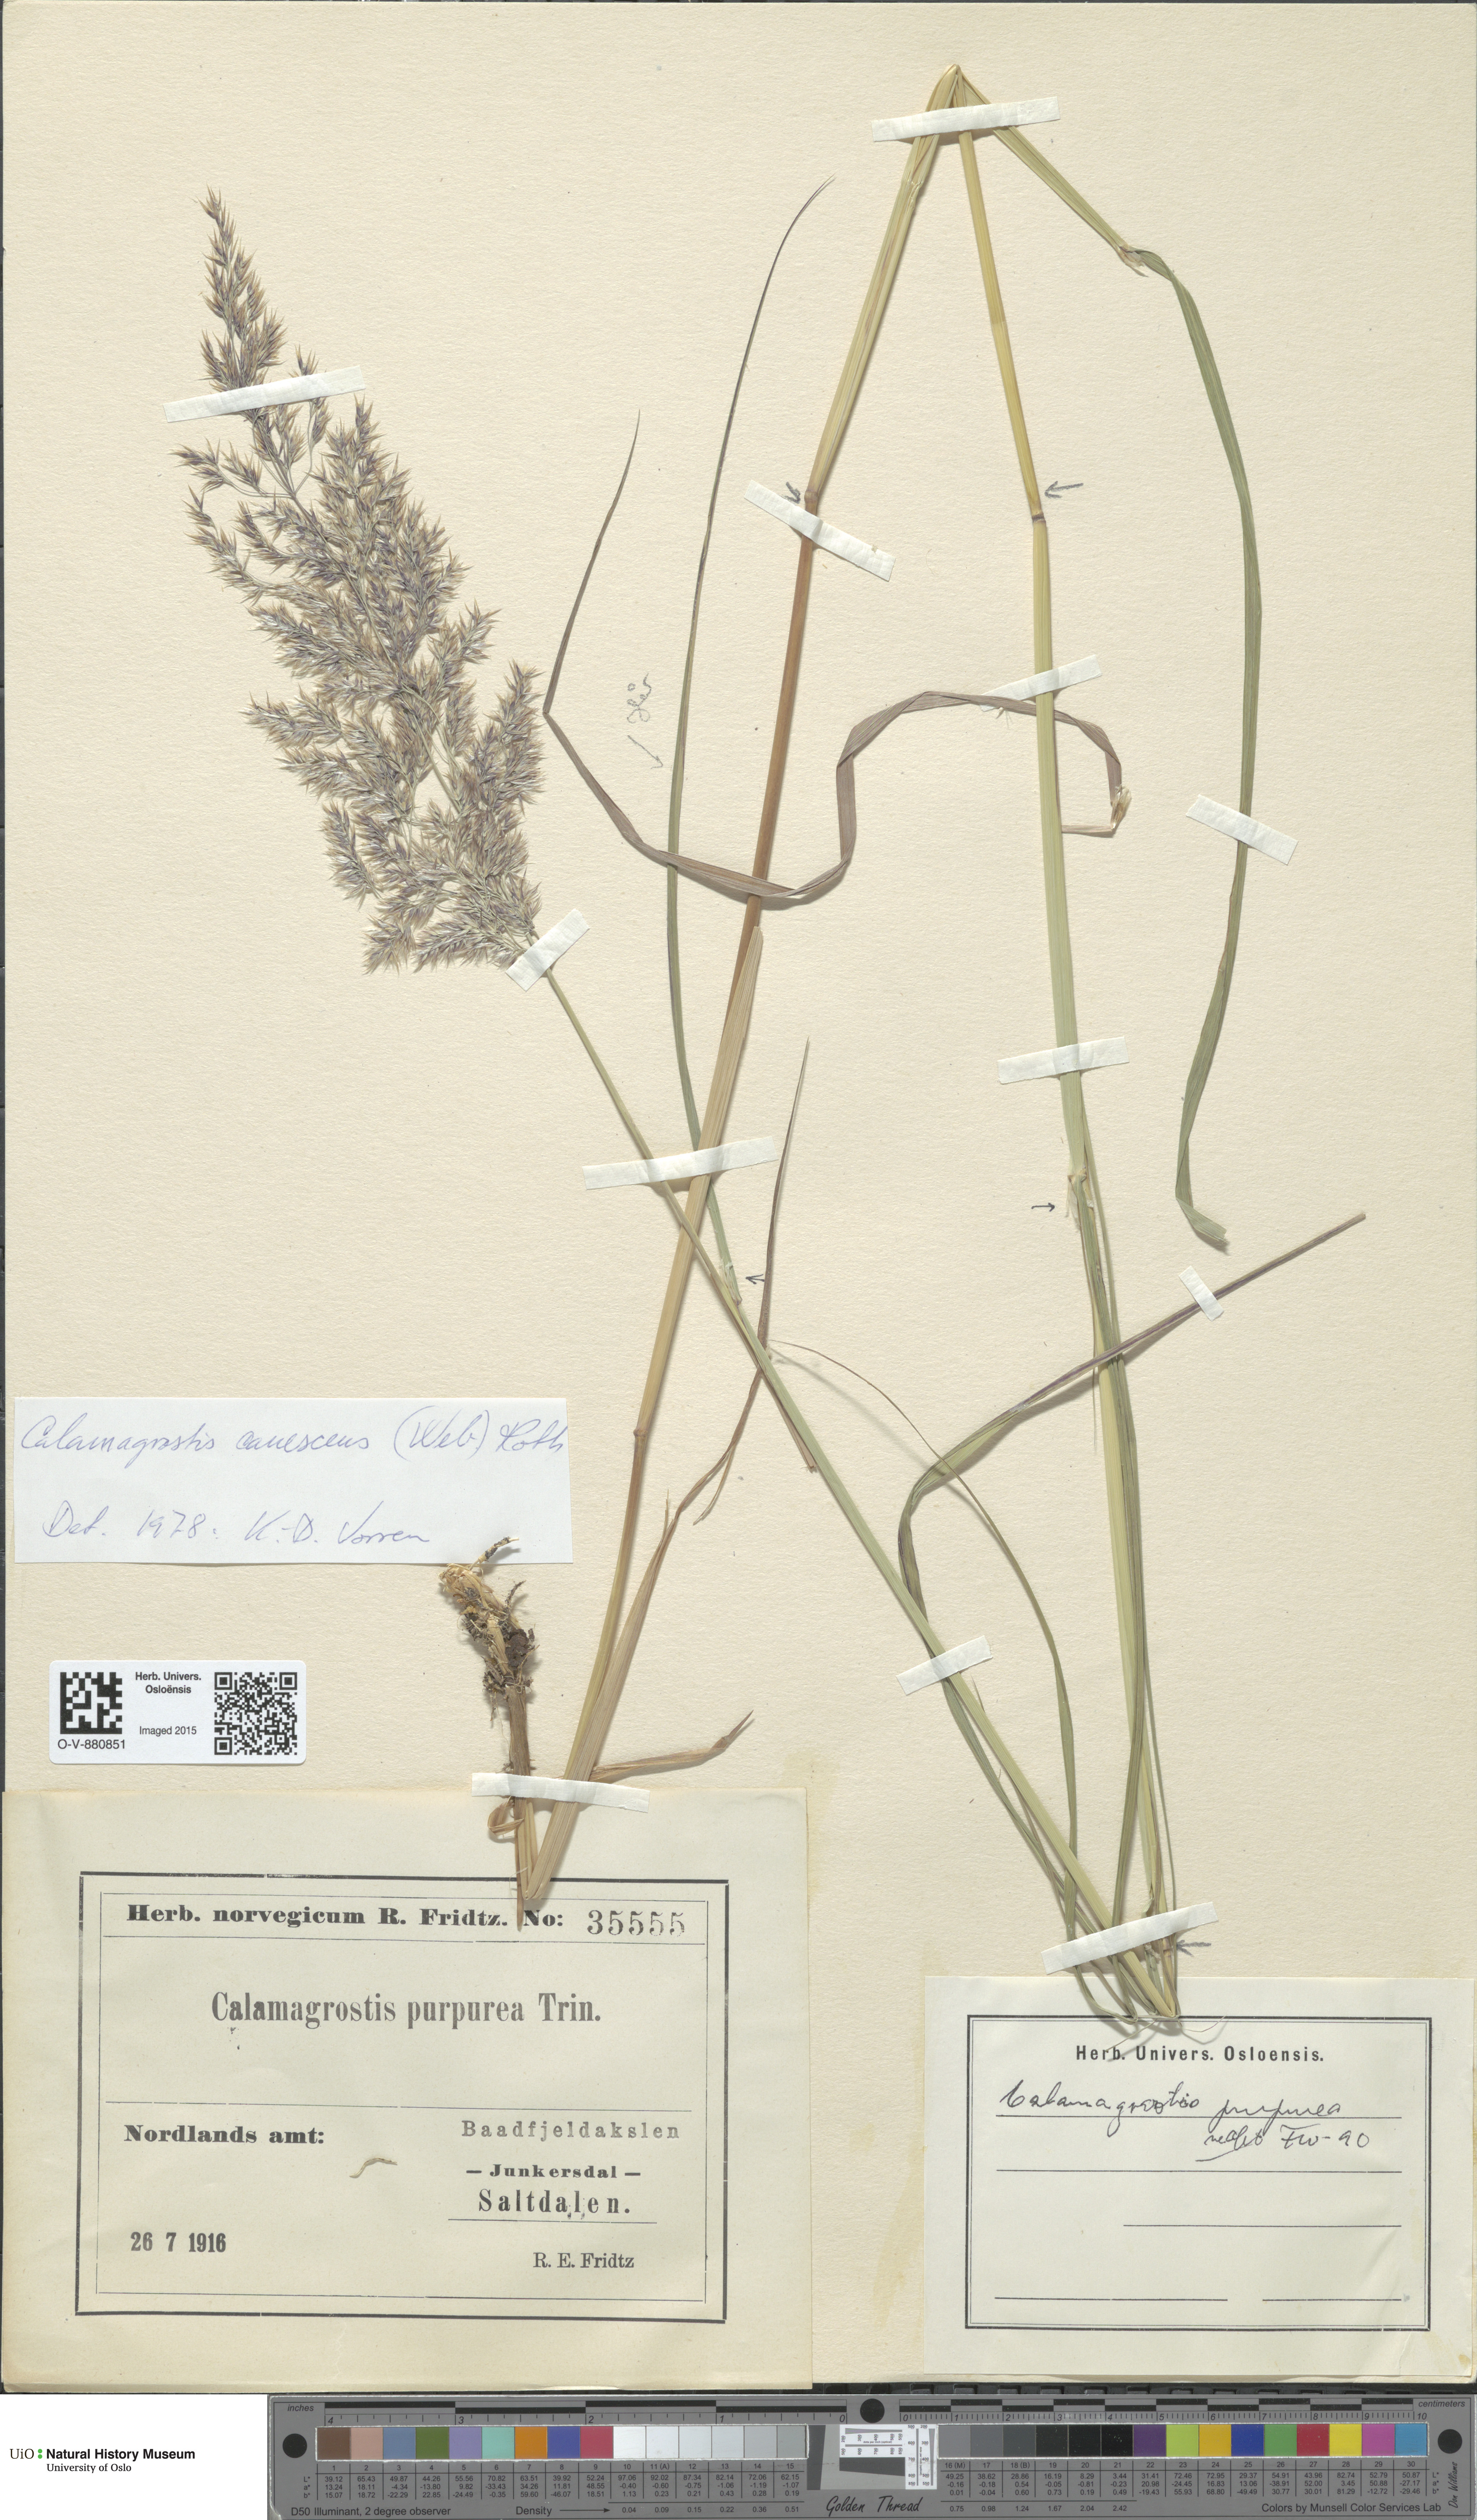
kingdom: Plantae
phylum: Tracheophyta
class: Liliopsida
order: Poales
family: Poaceae
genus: Calamagrostis
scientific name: Calamagrostis purpurea
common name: Scandinavian small-reed
